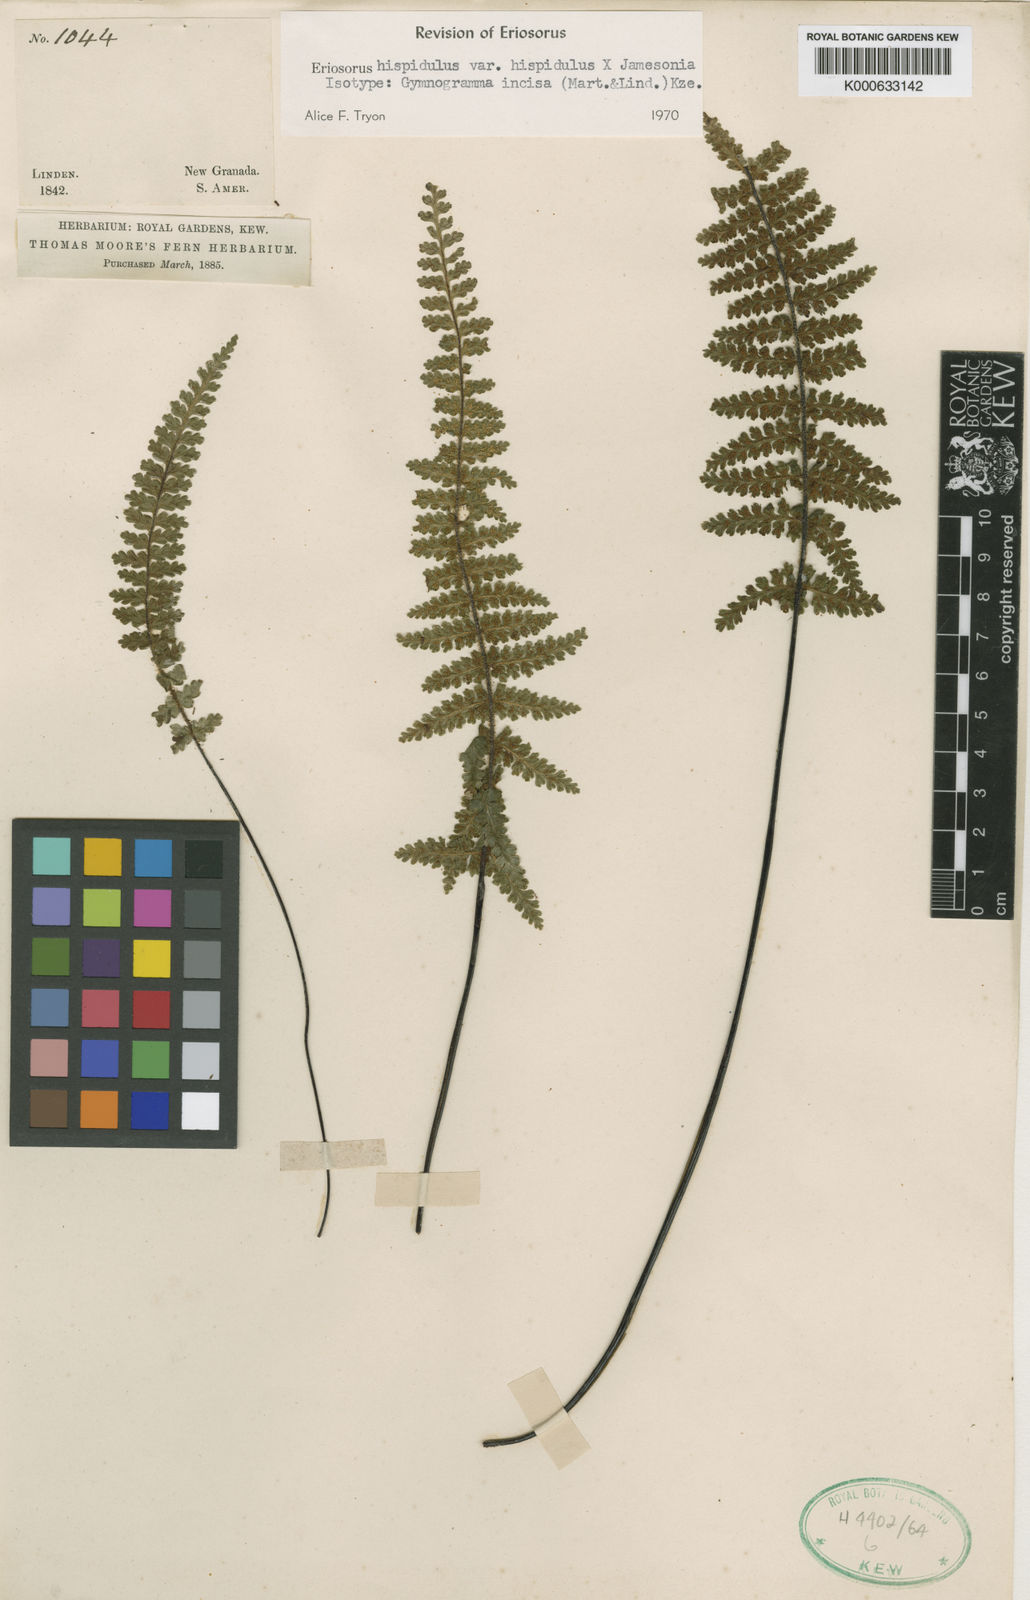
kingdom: Plantae
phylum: Tracheophyta
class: Polypodiopsida
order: Polypodiales
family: Pteridaceae
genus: Jamesonia
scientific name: Jamesonia hispidula
